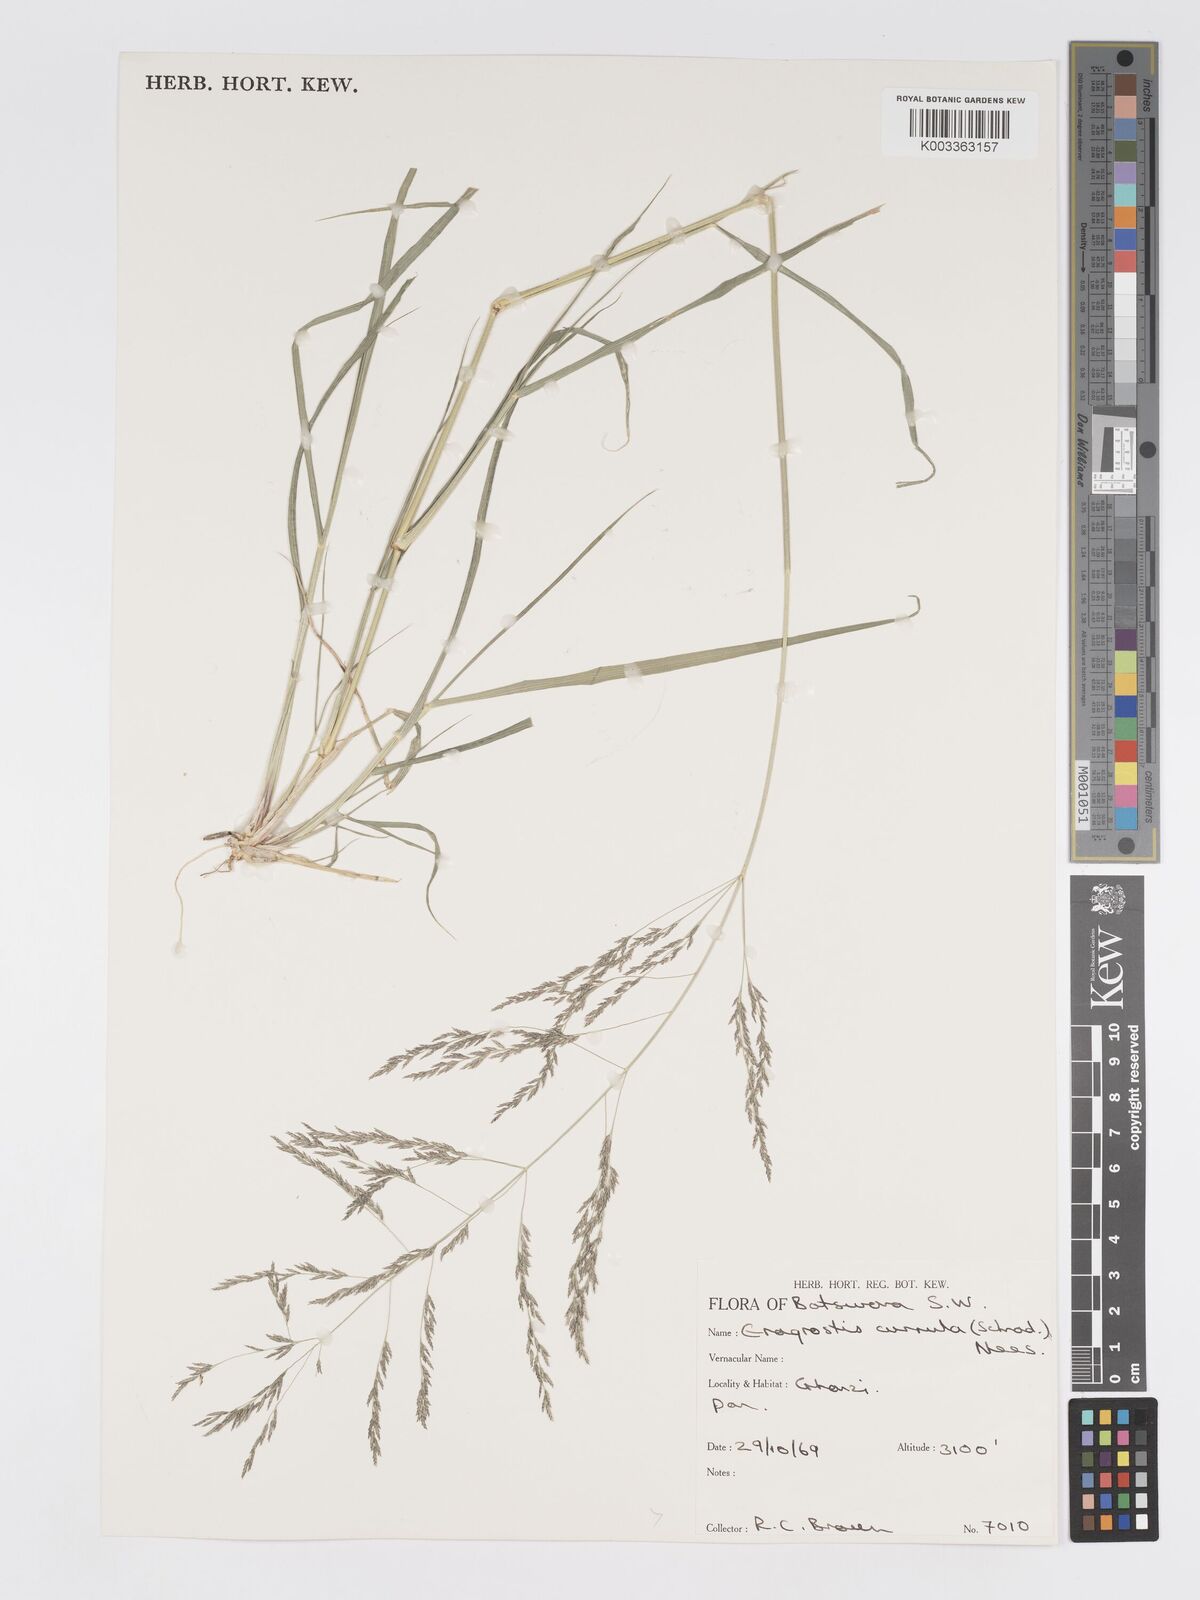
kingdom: Plantae
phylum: Tracheophyta
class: Liliopsida
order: Poales
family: Poaceae
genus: Eragrostis
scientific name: Eragrostis cylindriflora
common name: Cylinderflower lovegrass
